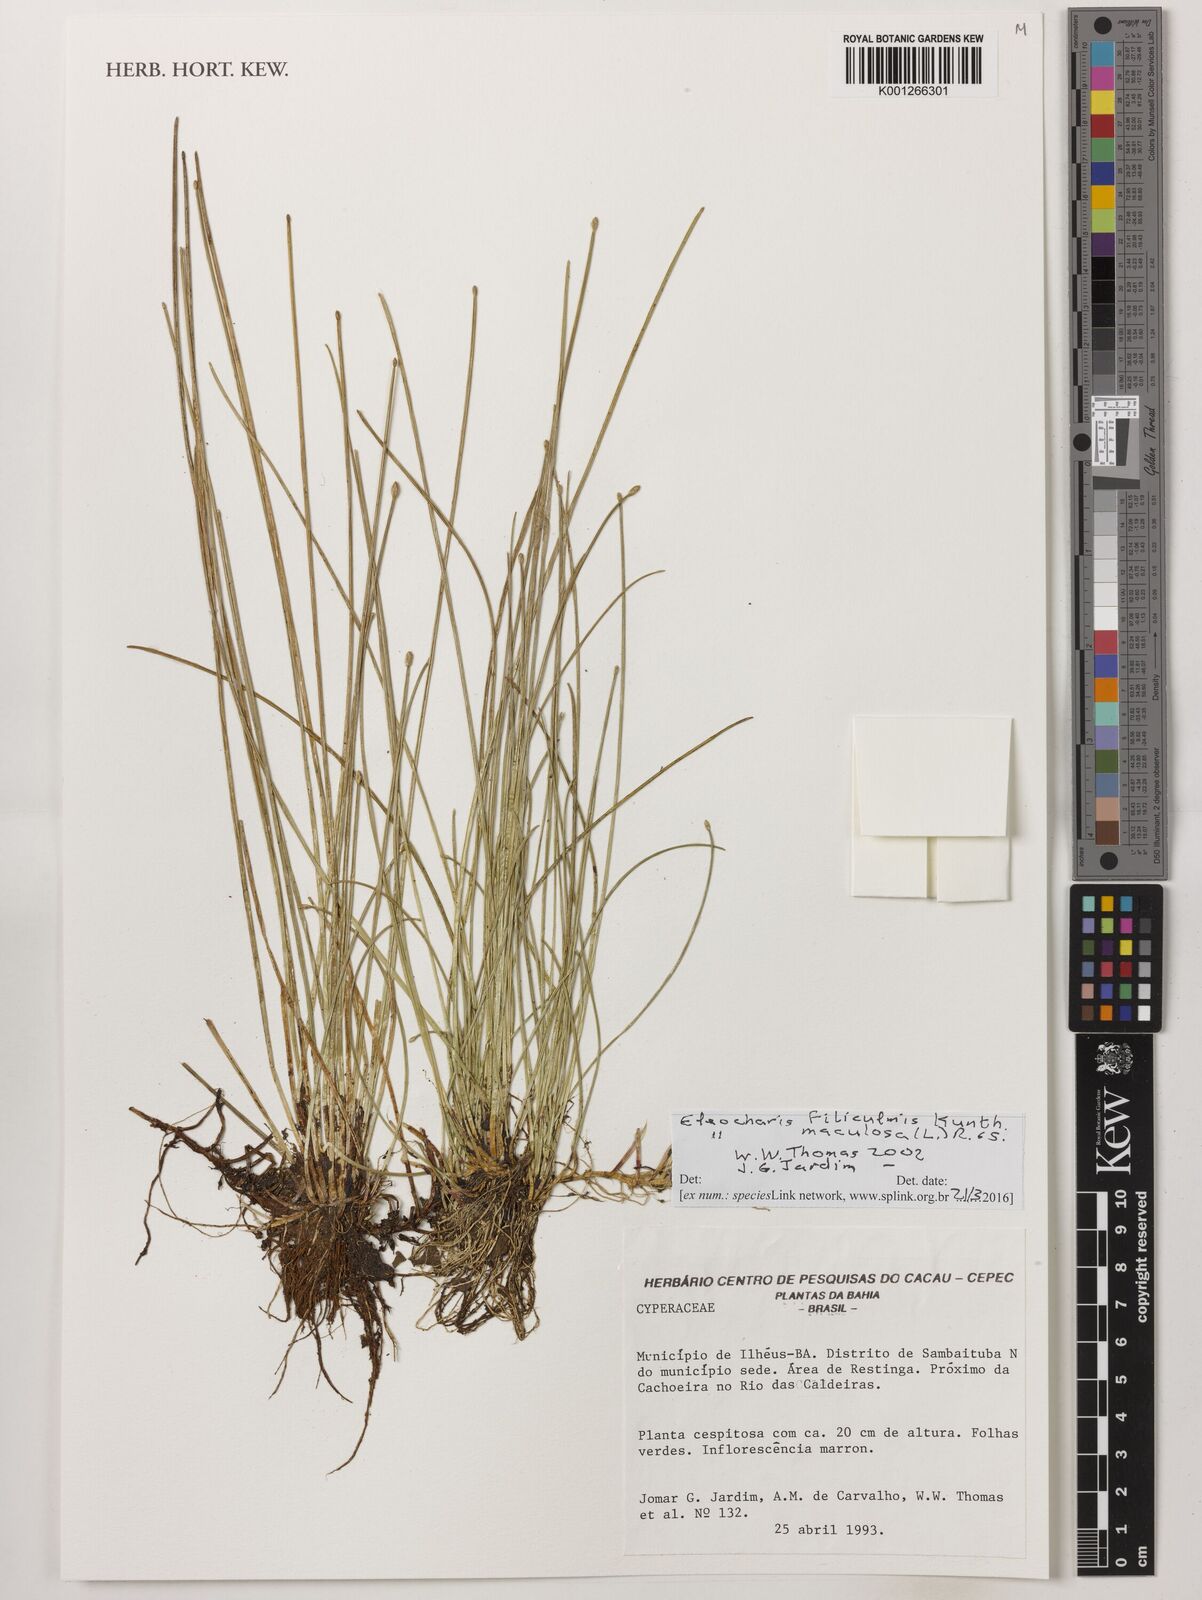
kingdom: Plantae
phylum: Tracheophyta
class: Liliopsida
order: Poales
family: Cyperaceae
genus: Eleocharis
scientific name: Eleocharis filiculmis
